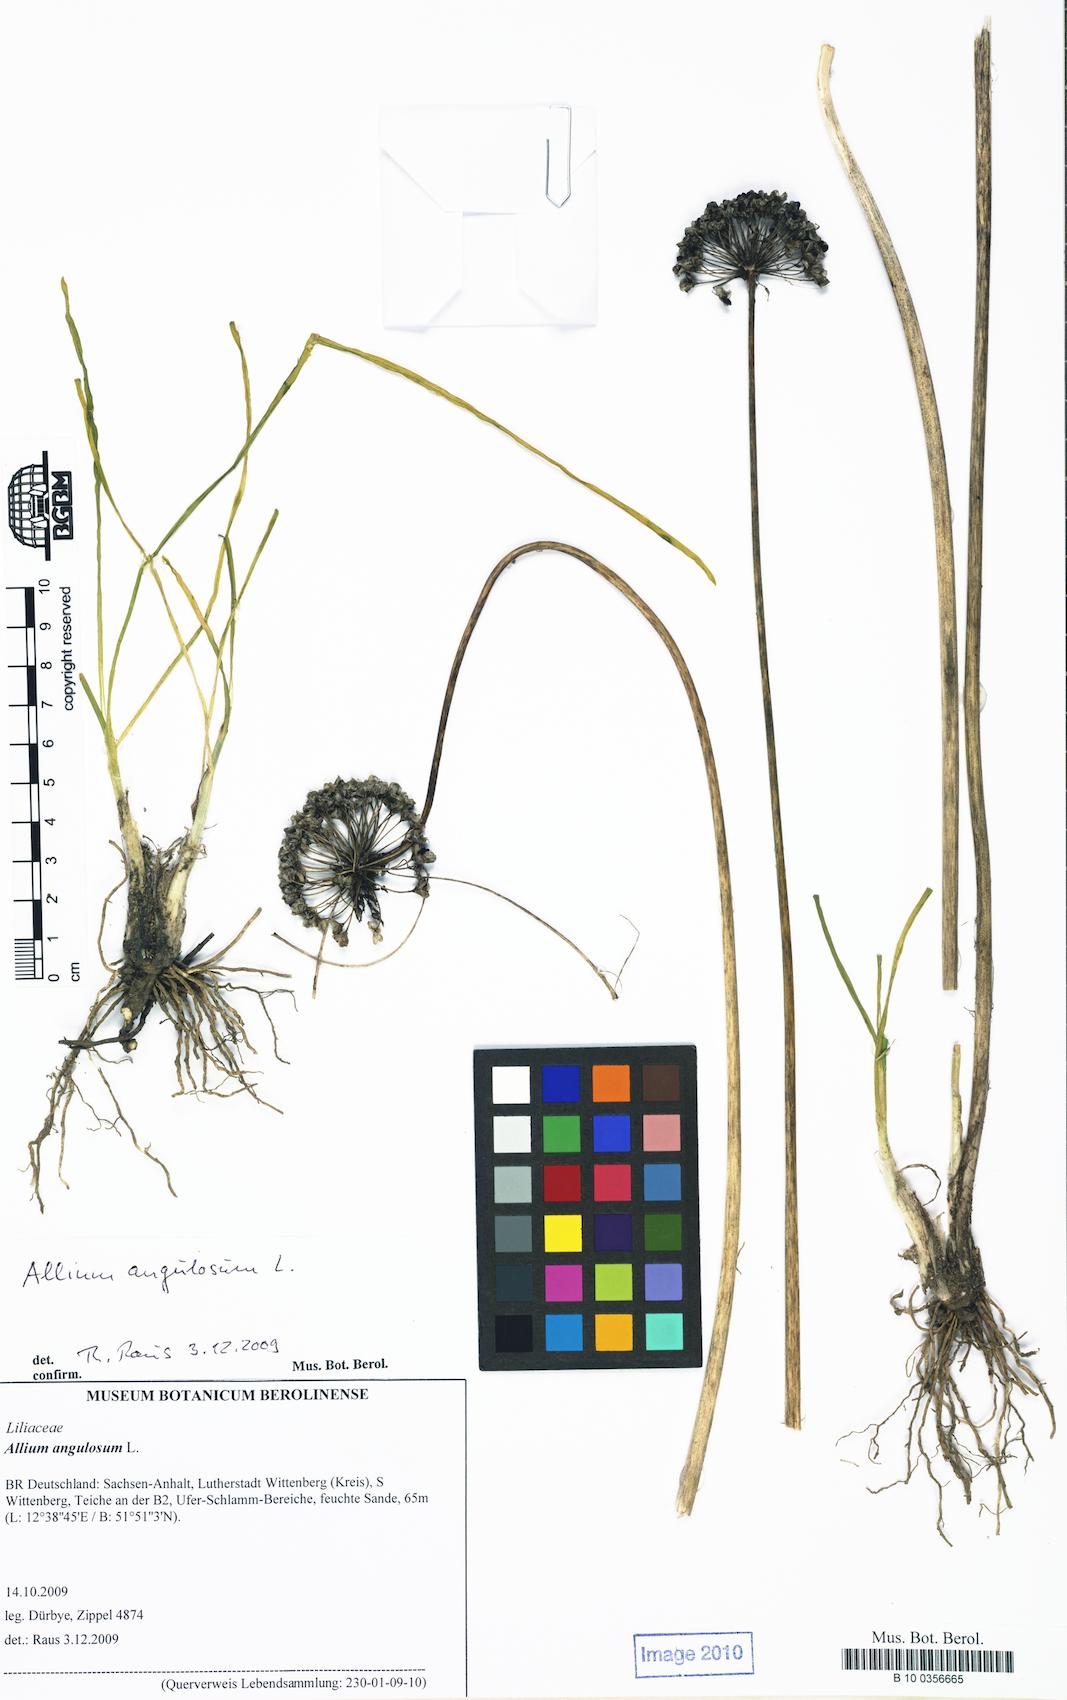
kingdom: Plantae
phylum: Tracheophyta
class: Liliopsida
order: Asparagales
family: Amaryllidaceae
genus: Allium
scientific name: Allium angulosum
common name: Mouse garlic
